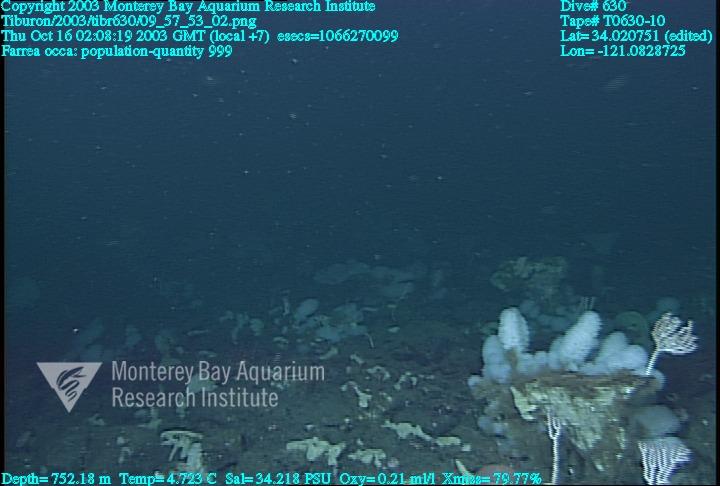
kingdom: Animalia
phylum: Porifera
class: Hexactinellida
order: Sceptrulophora
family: Farreidae
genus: Farrea
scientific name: Farrea occa
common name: Reversed glass sponge
